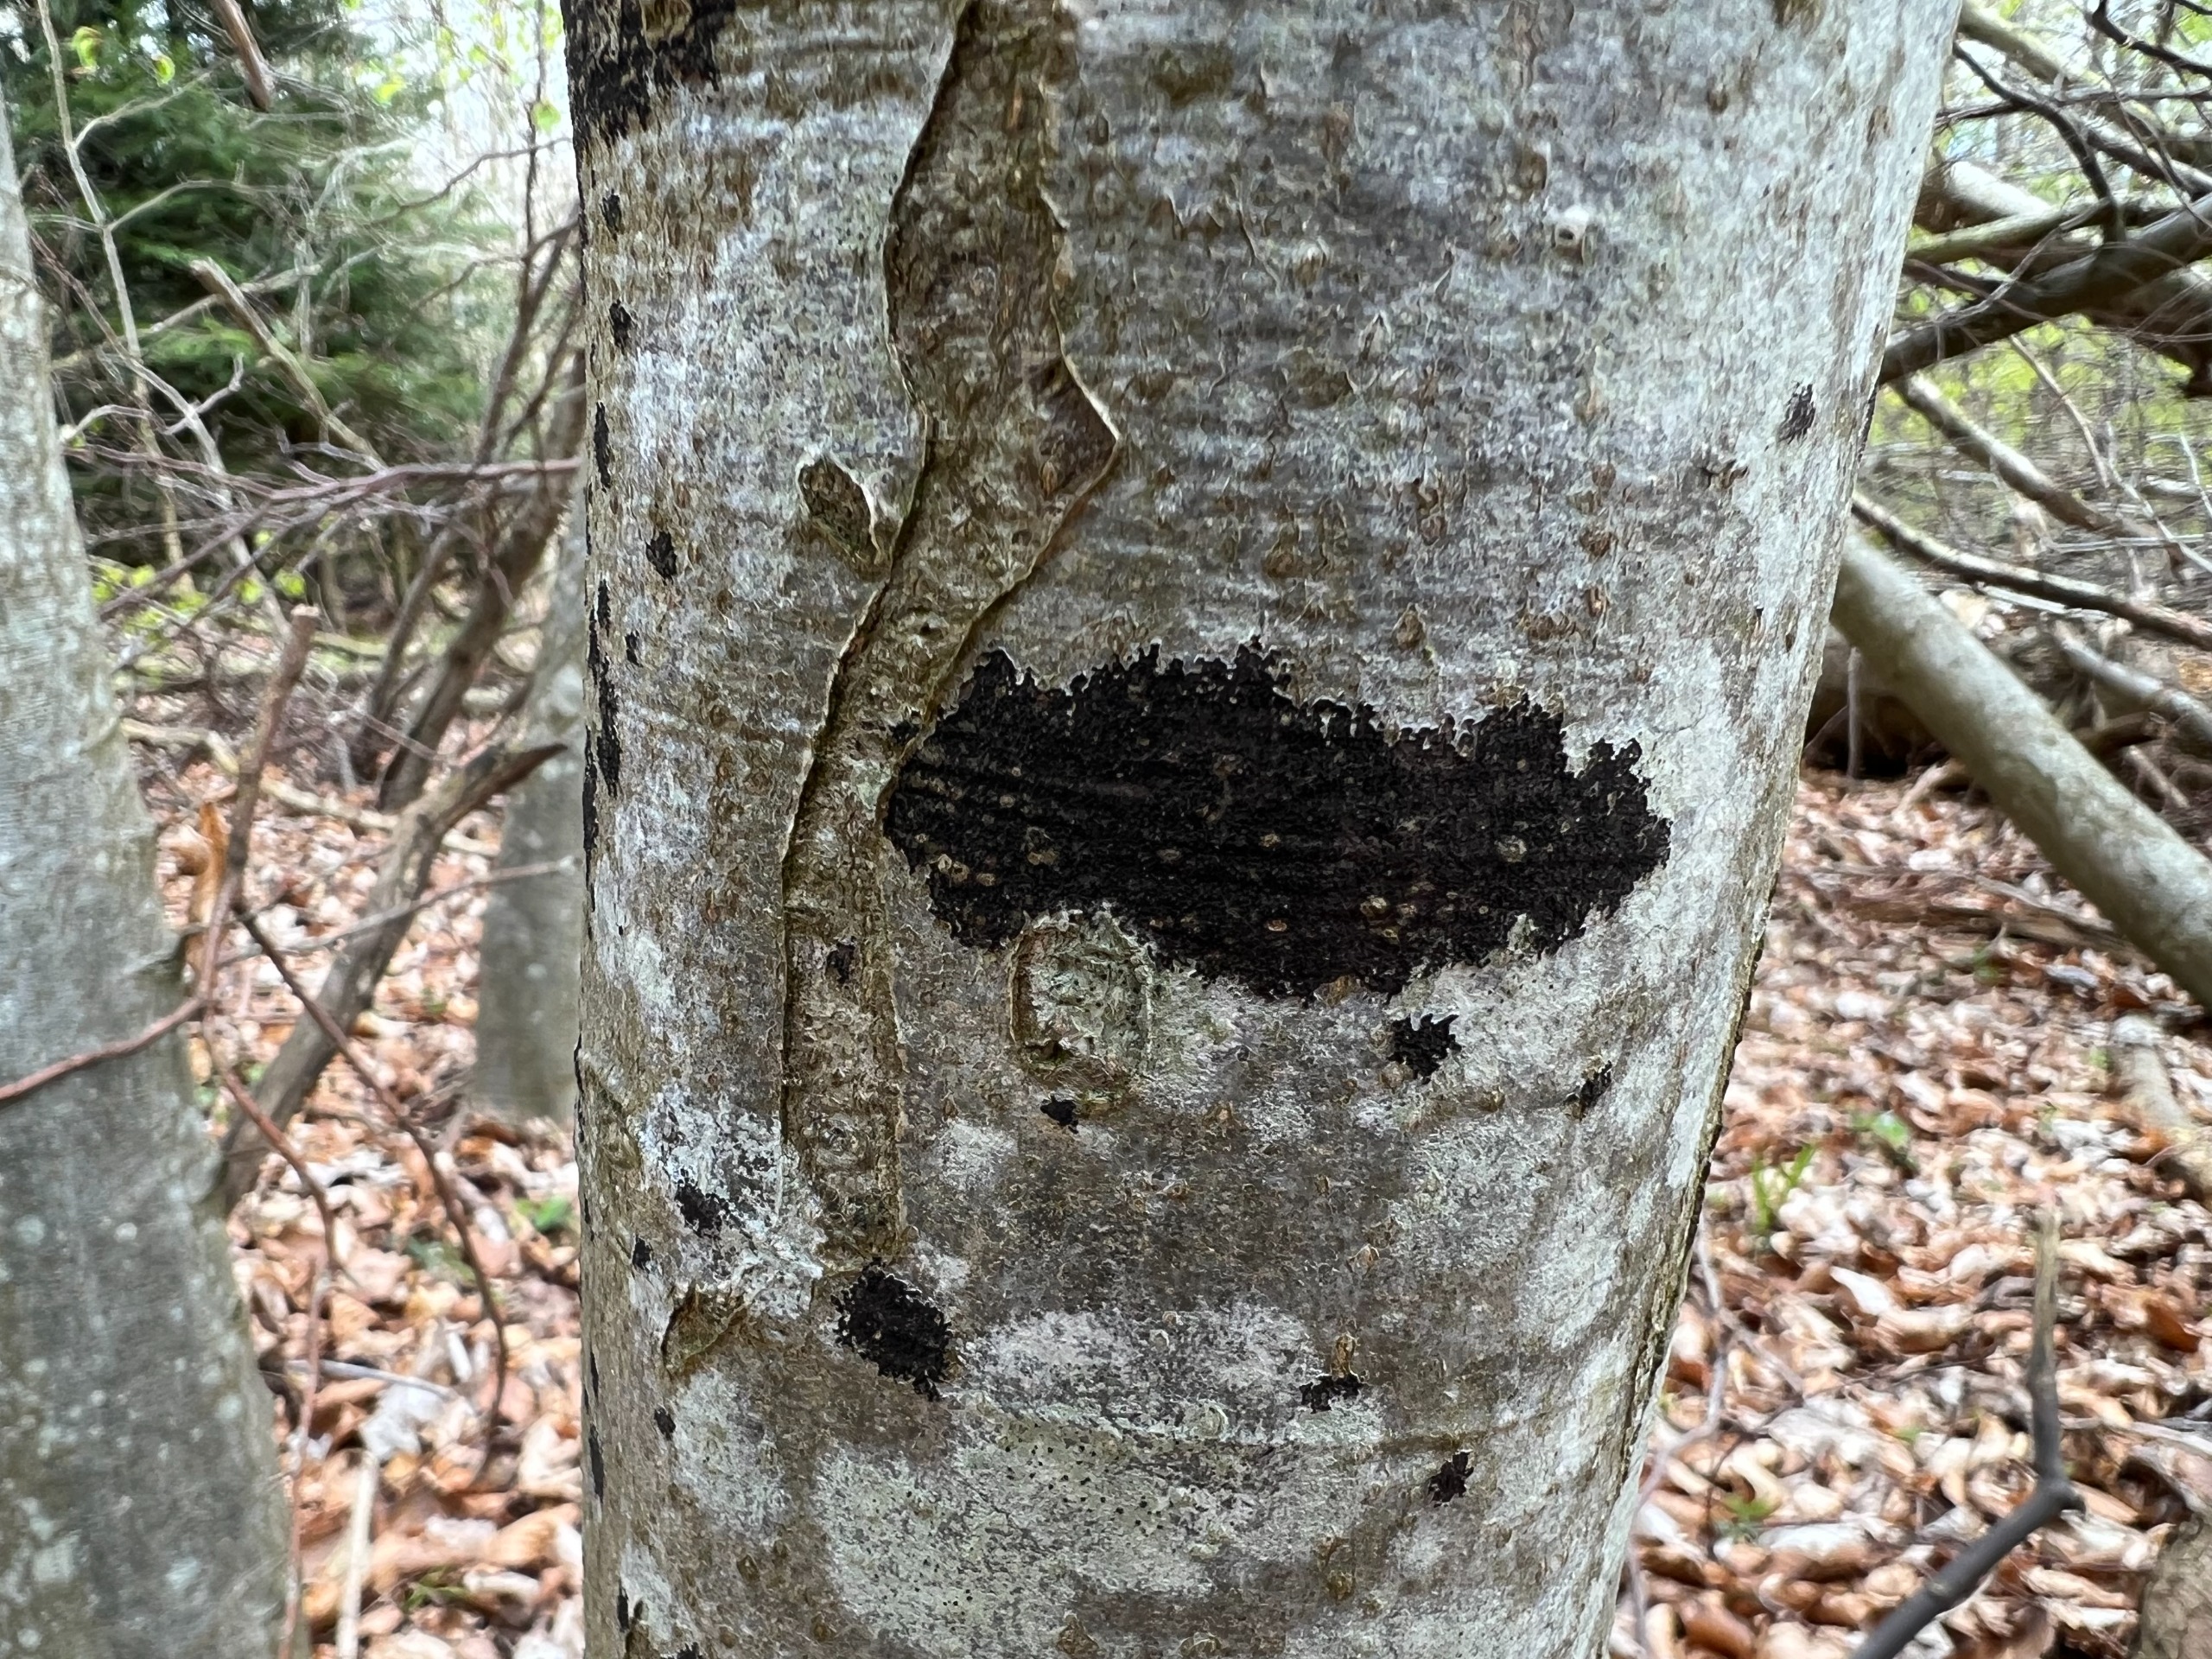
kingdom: Fungi
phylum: Ascomycota
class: Leotiomycetes
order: Rhytismatales
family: Ascodichaenaceae
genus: Ascodichaena
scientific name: Ascodichaena rugosa
